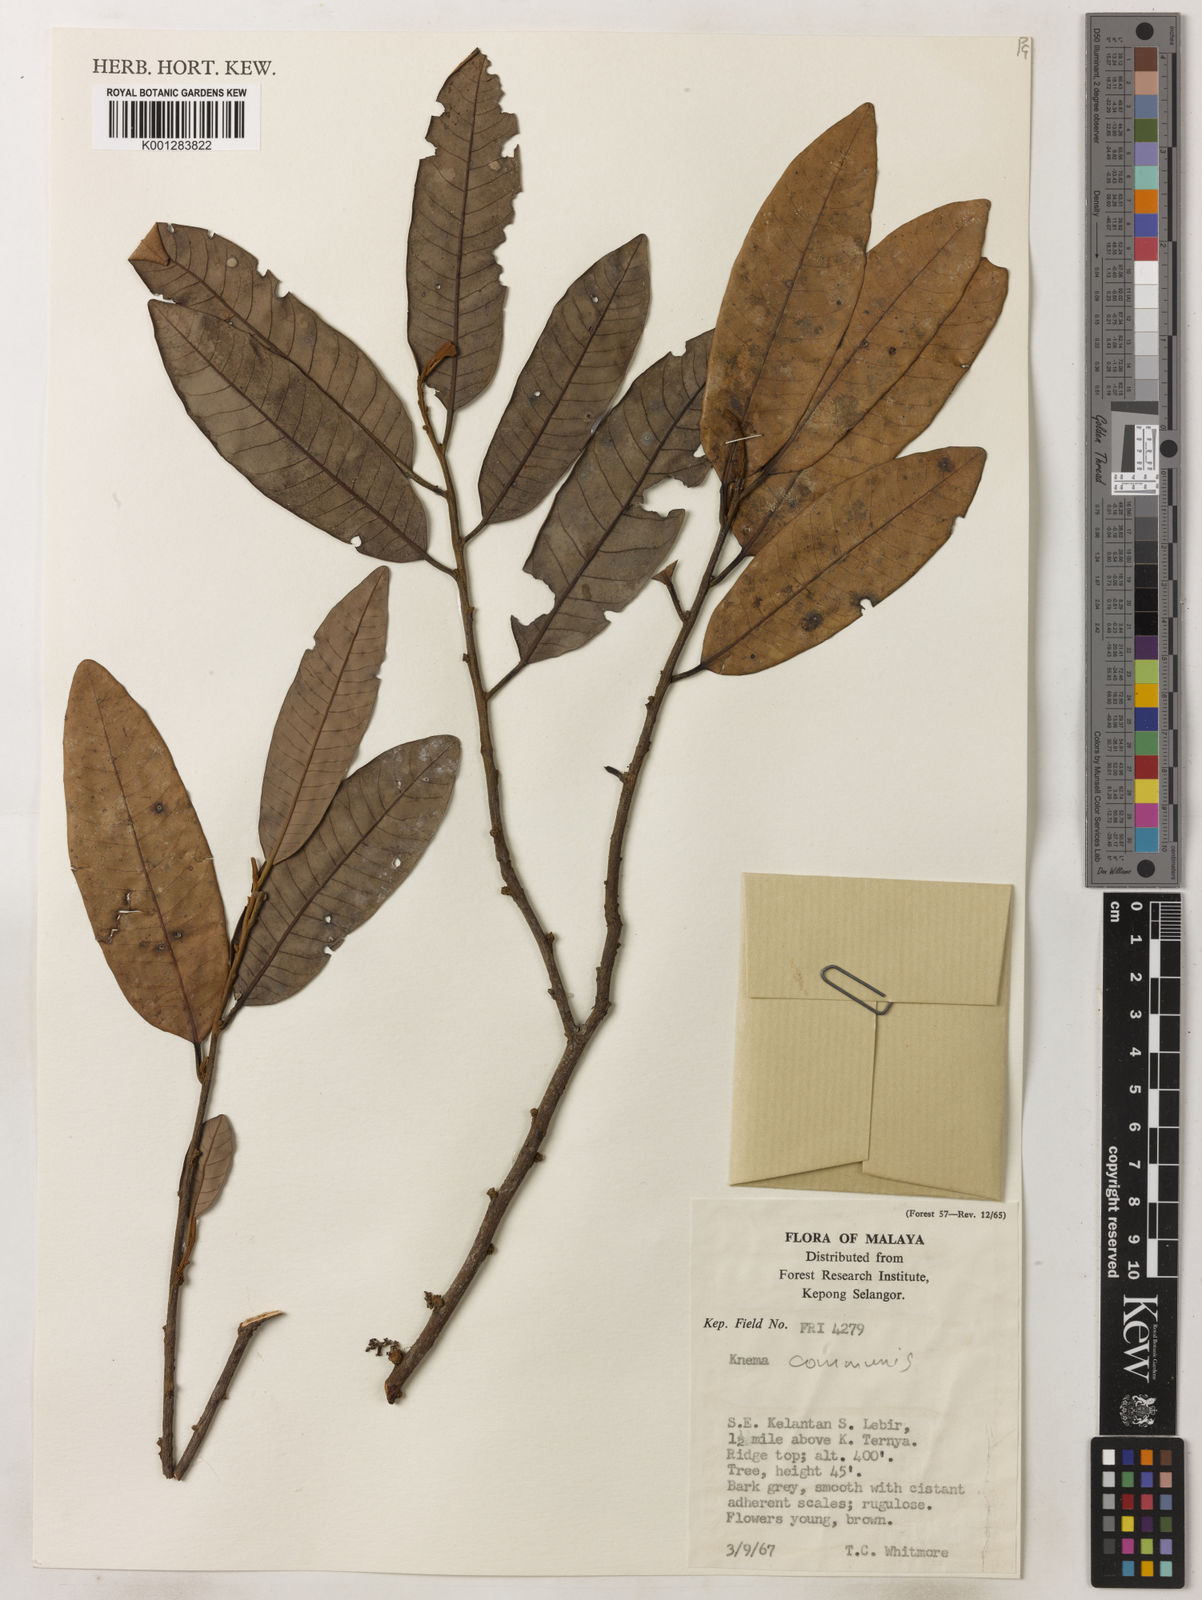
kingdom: Plantae
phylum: Tracheophyta
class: Magnoliopsida
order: Magnoliales
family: Myristicaceae
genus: Knema
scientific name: Knema communis
